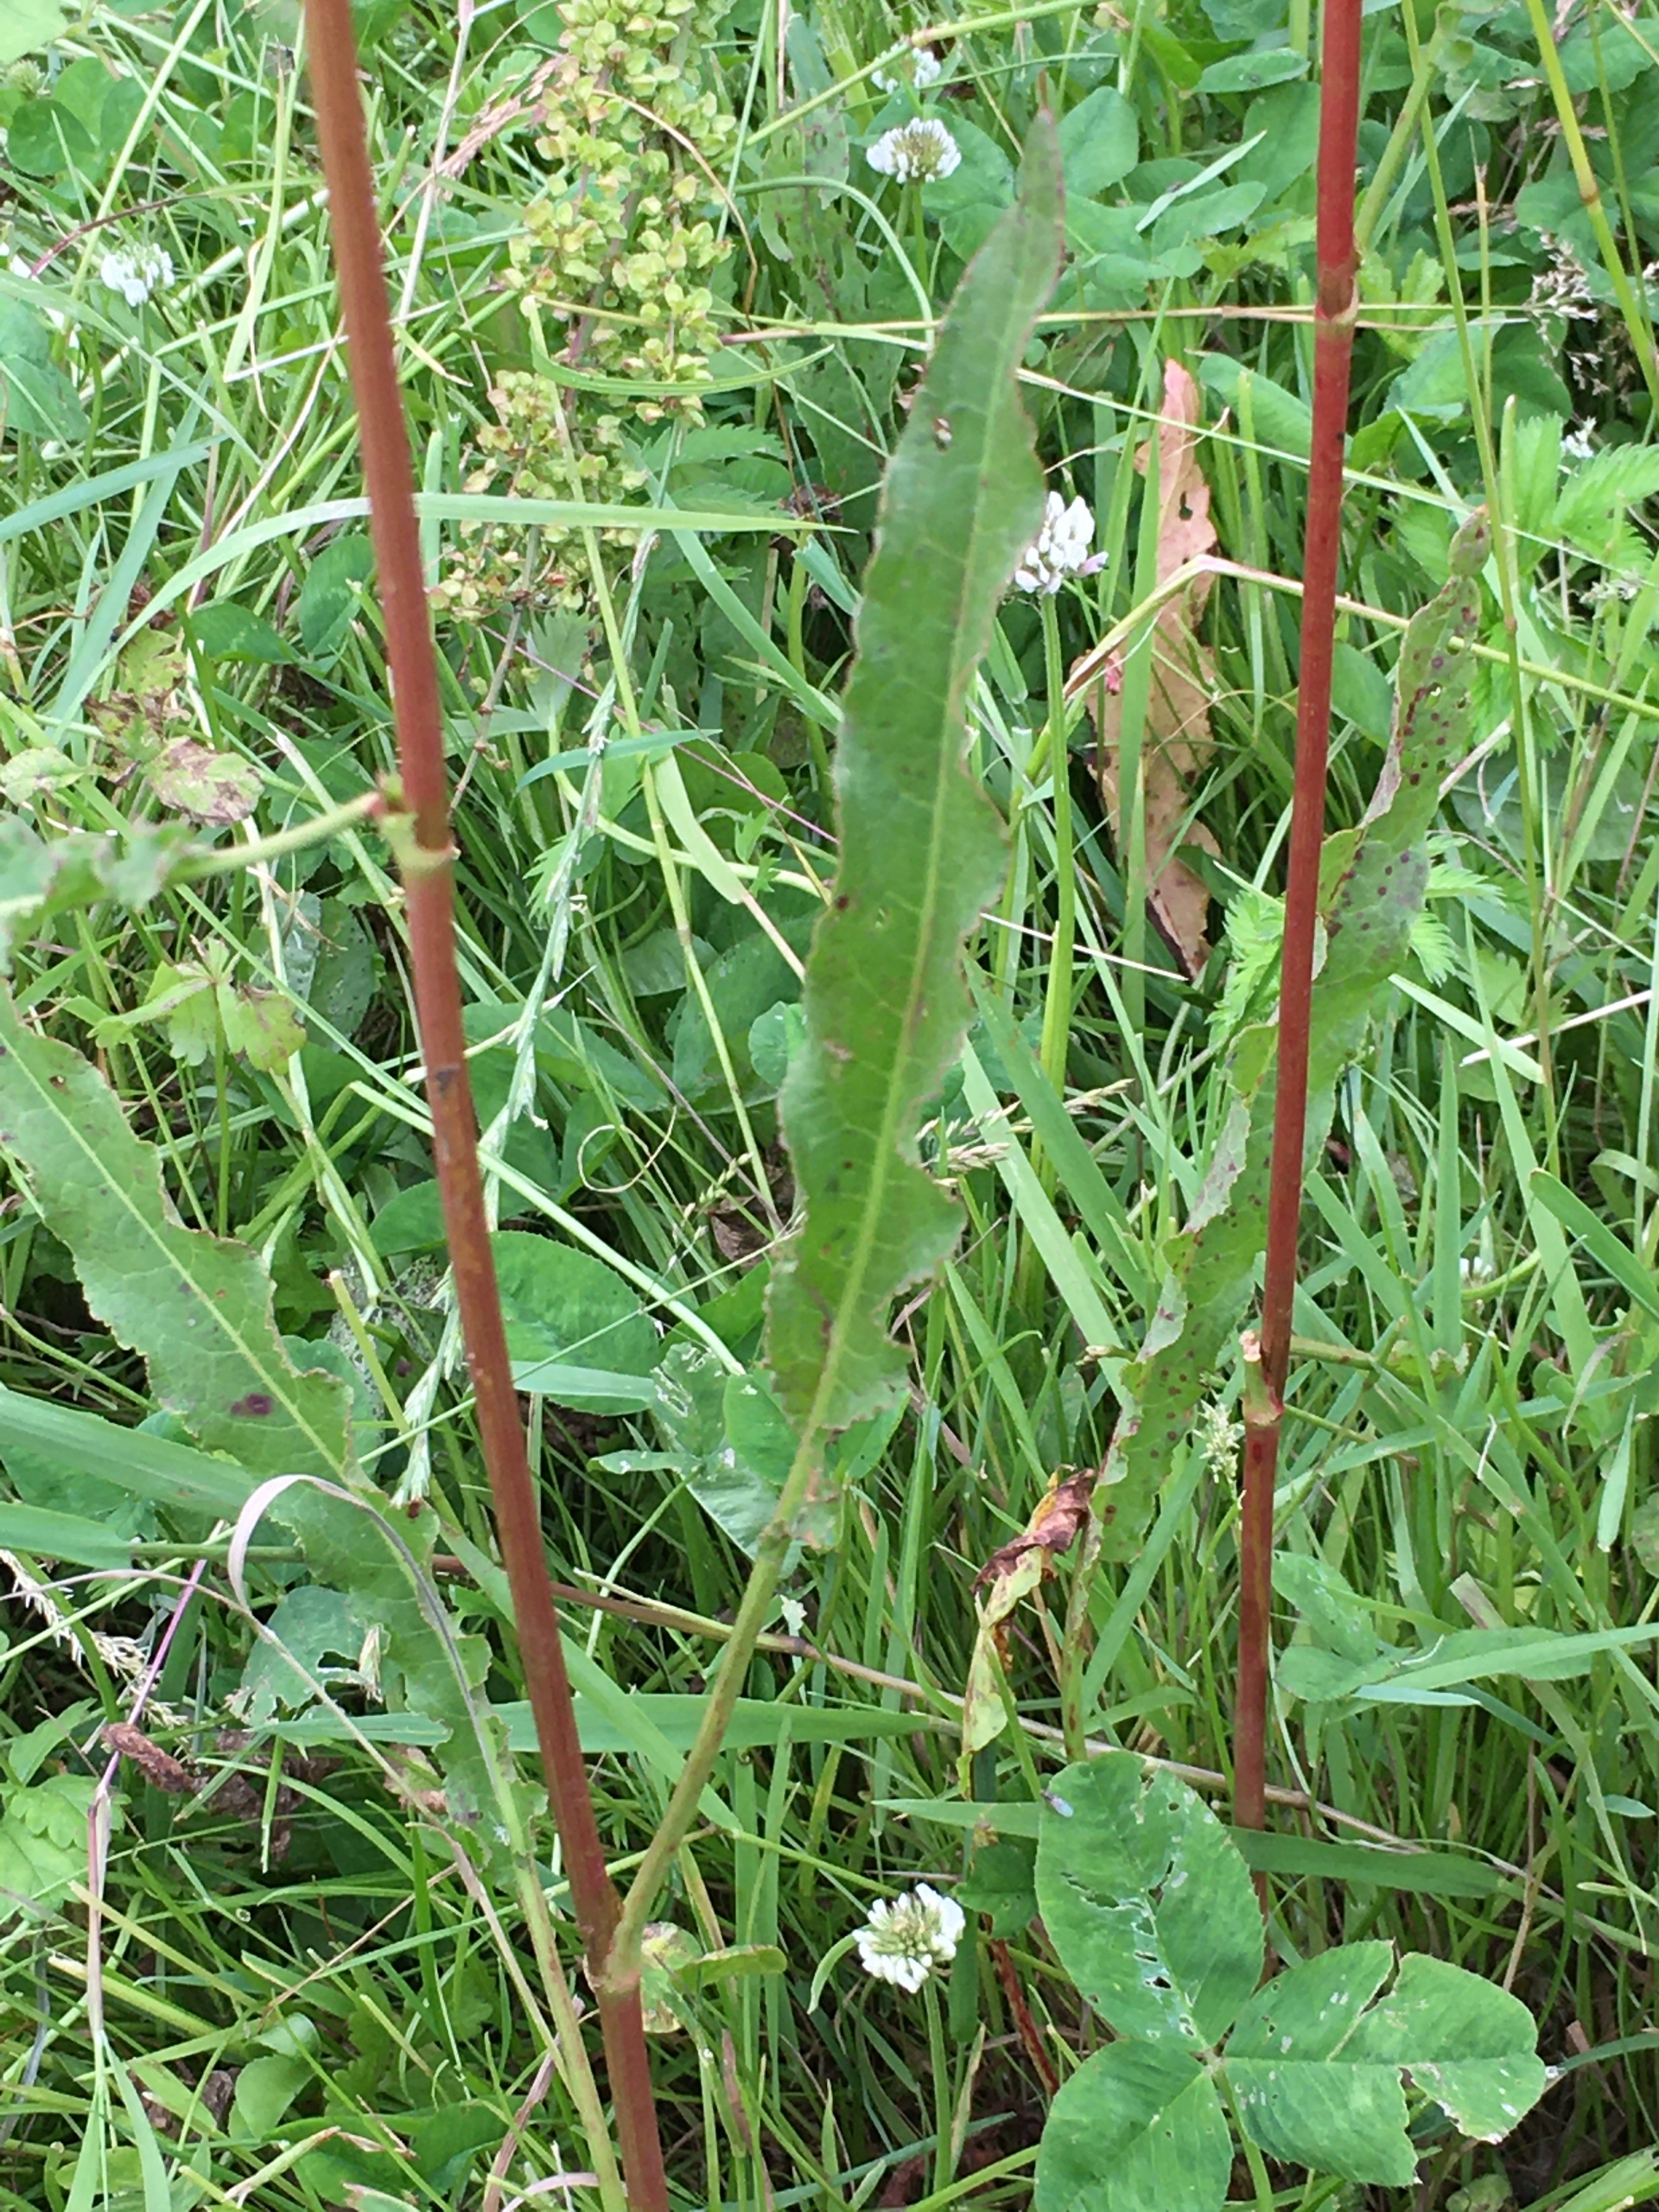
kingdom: Plantae
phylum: Tracheophyta
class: Magnoliopsida
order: Caryophyllales
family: Polygonaceae
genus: Rumex
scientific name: Rumex crispus
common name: Kruset skræppe
